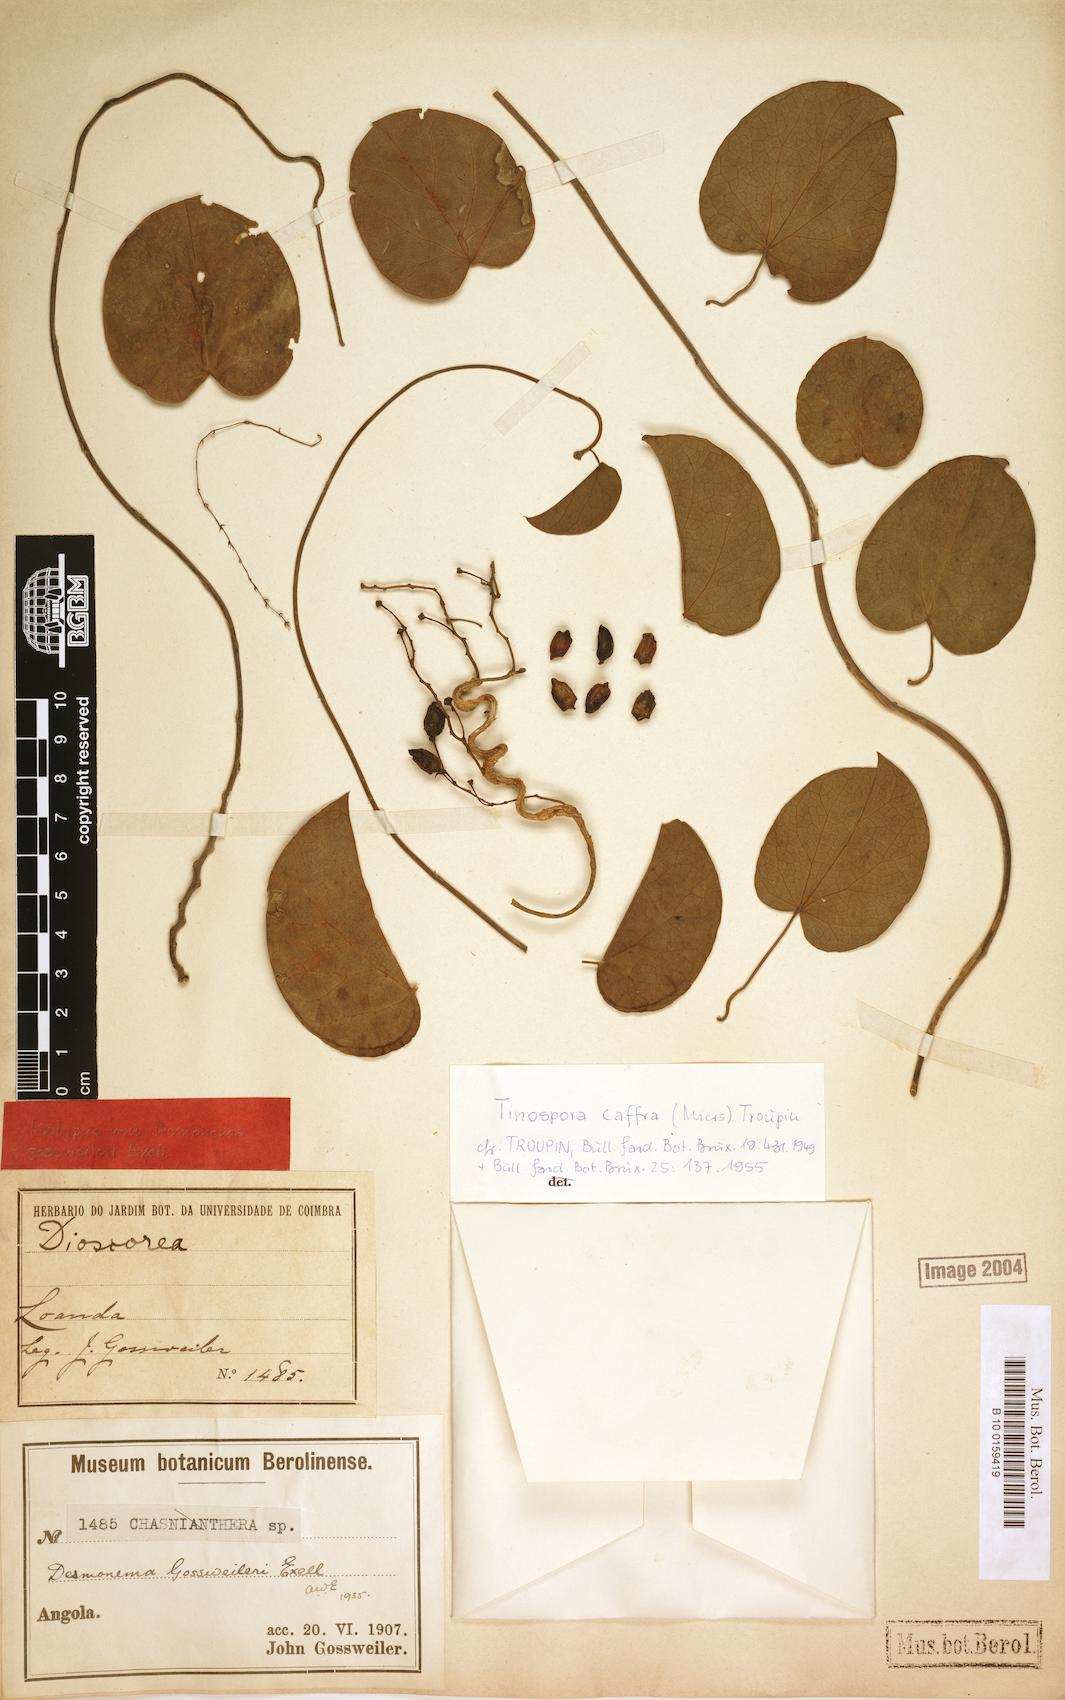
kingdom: Plantae
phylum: Tracheophyta
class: Magnoliopsida
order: Ranunculales
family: Menispermaceae
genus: Tinospora
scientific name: Tinospora caffra
